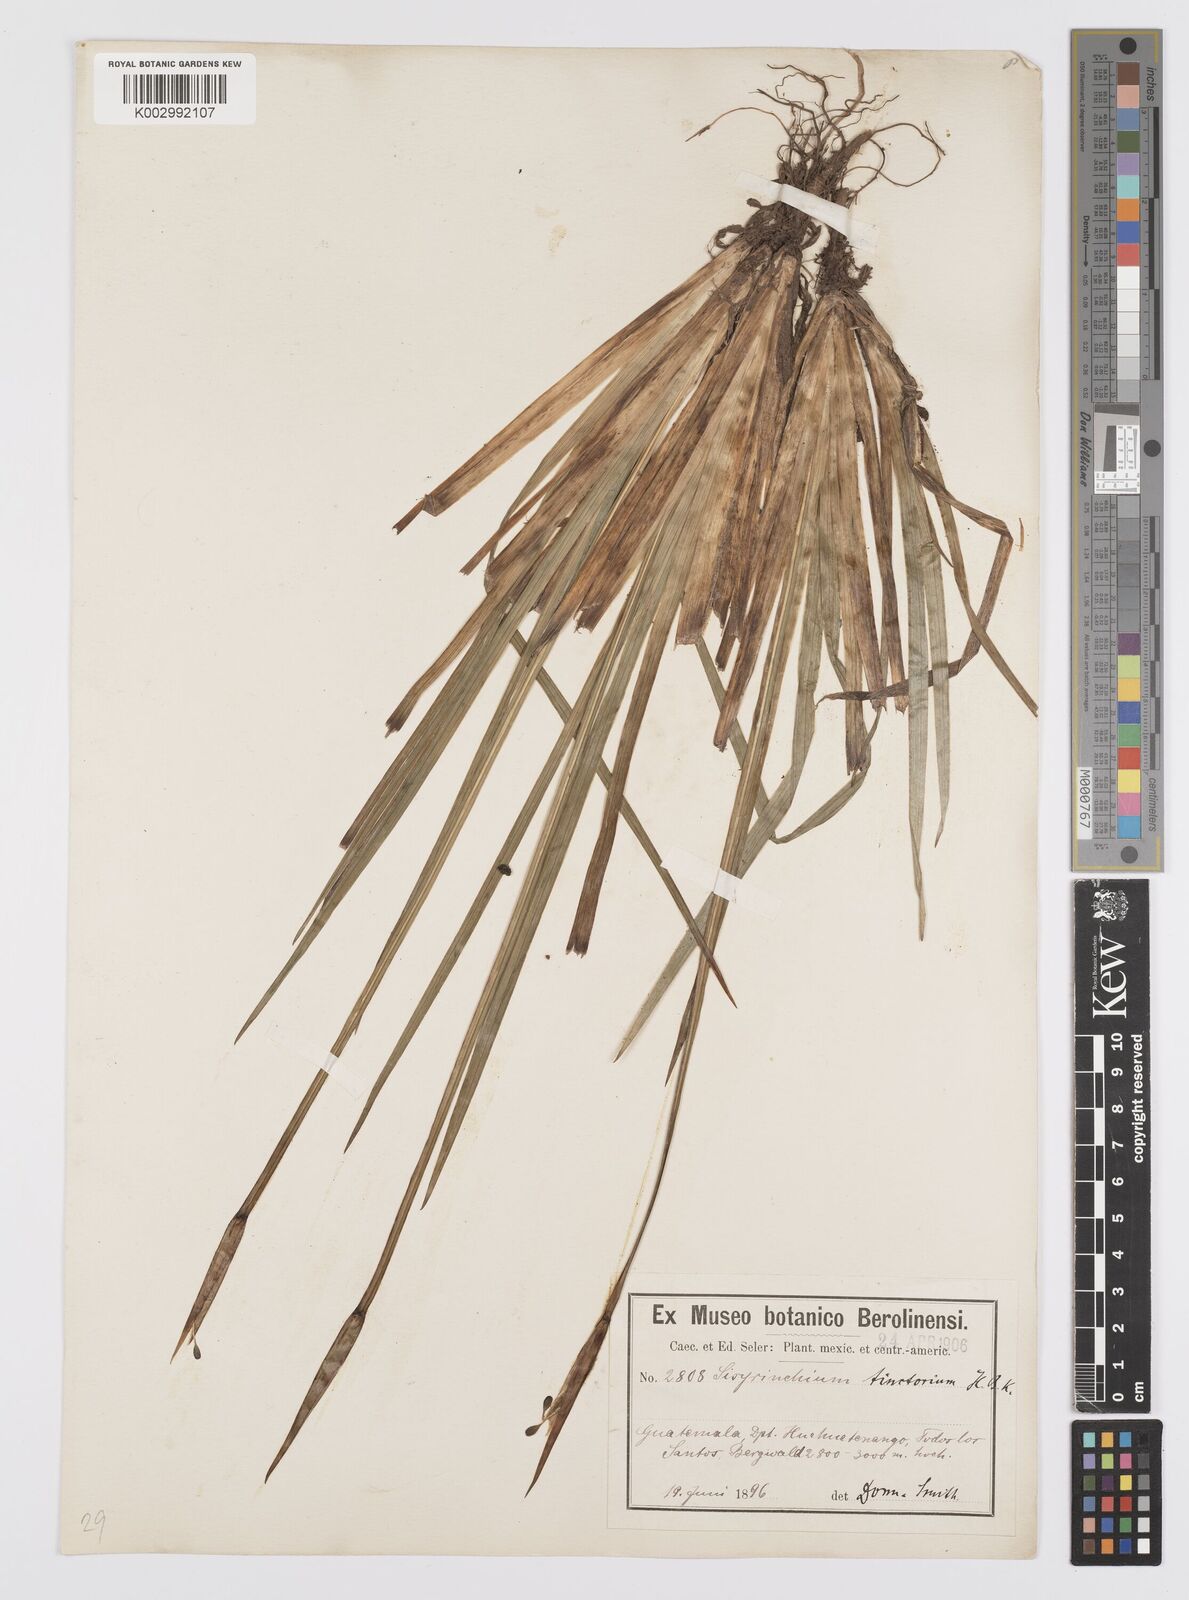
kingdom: Plantae
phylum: Tracheophyta
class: Liliopsida
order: Asparagales
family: Iridaceae
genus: Sisyrinchium
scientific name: Sisyrinchium tinctorium
